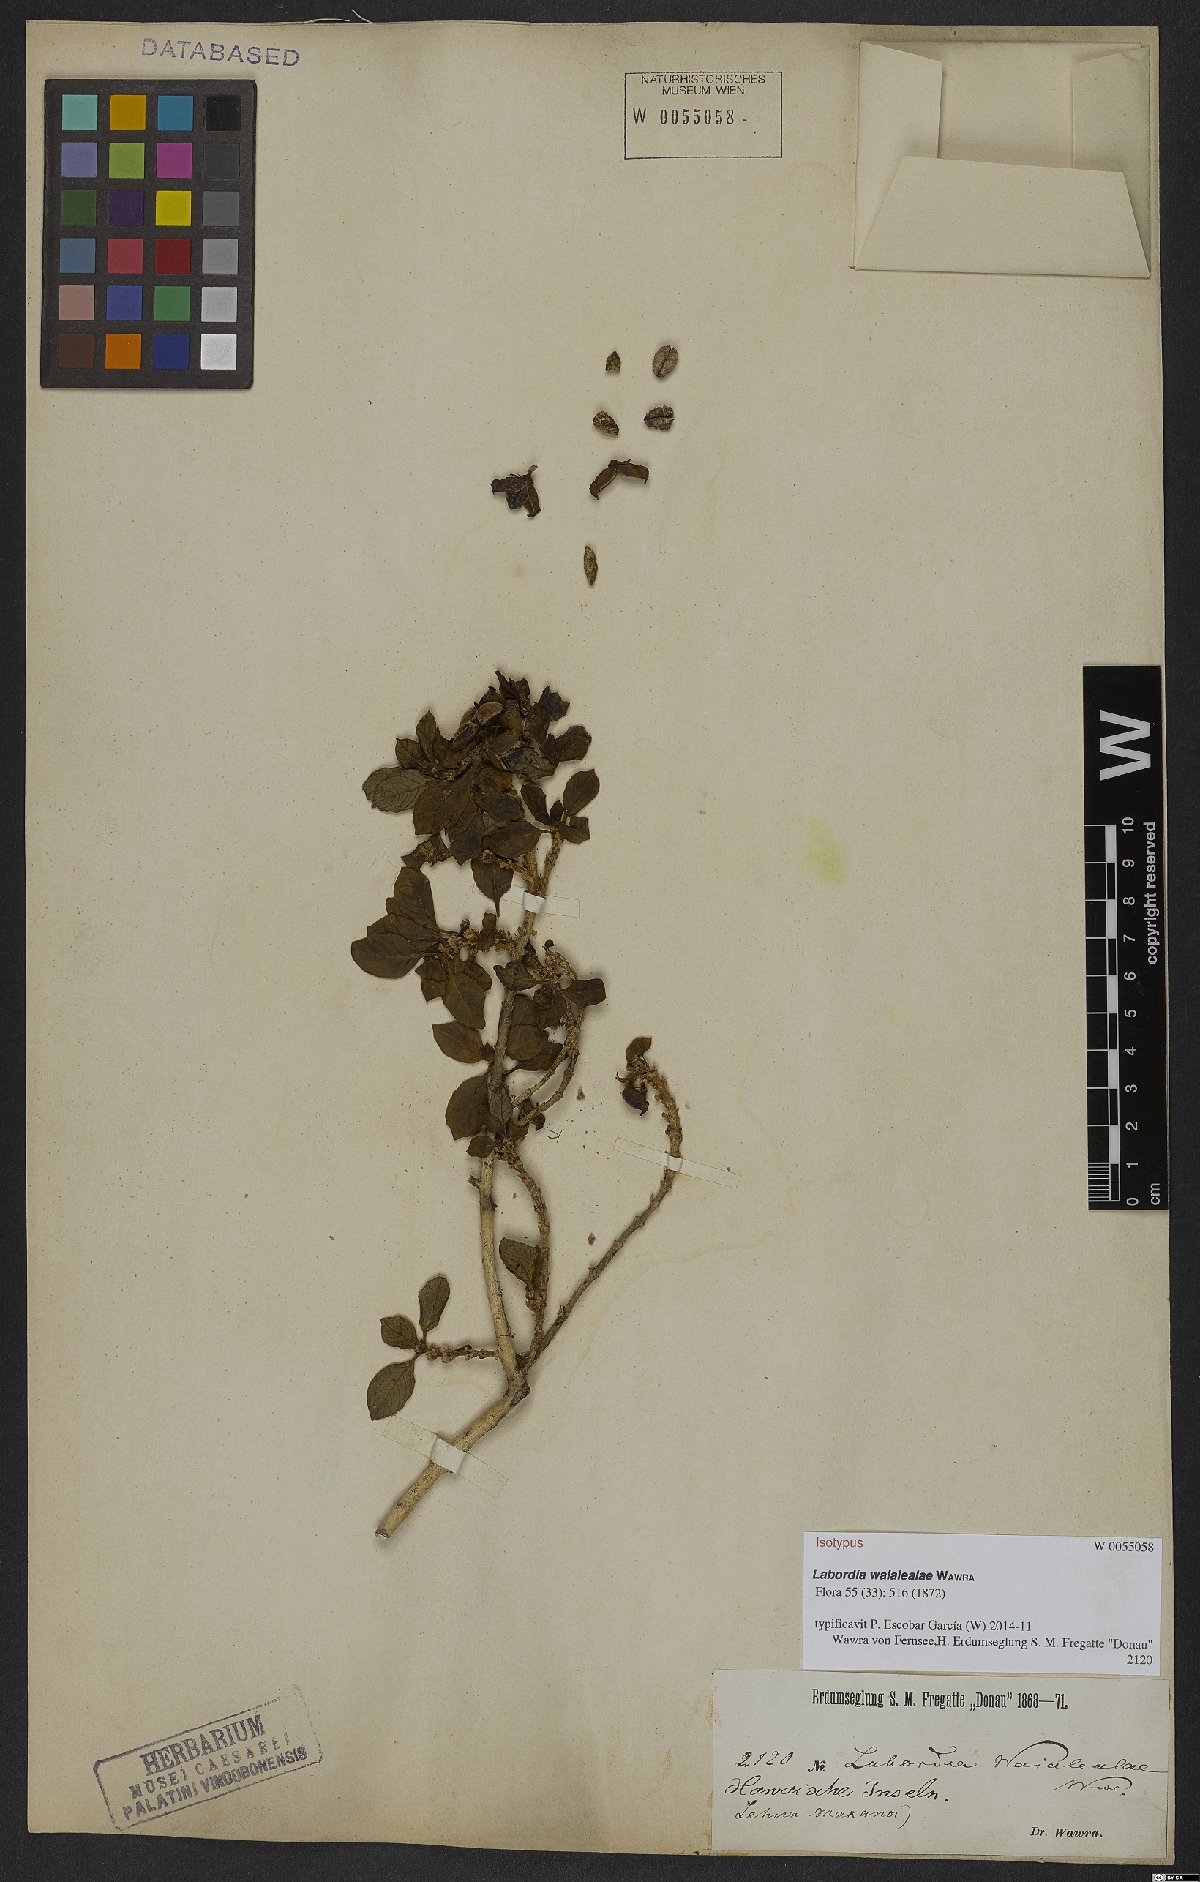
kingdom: Plantae
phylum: Tracheophyta
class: Magnoliopsida
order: Gentianales
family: Loganiaceae
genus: Geniostoma
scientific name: Geniostoma waialealae
